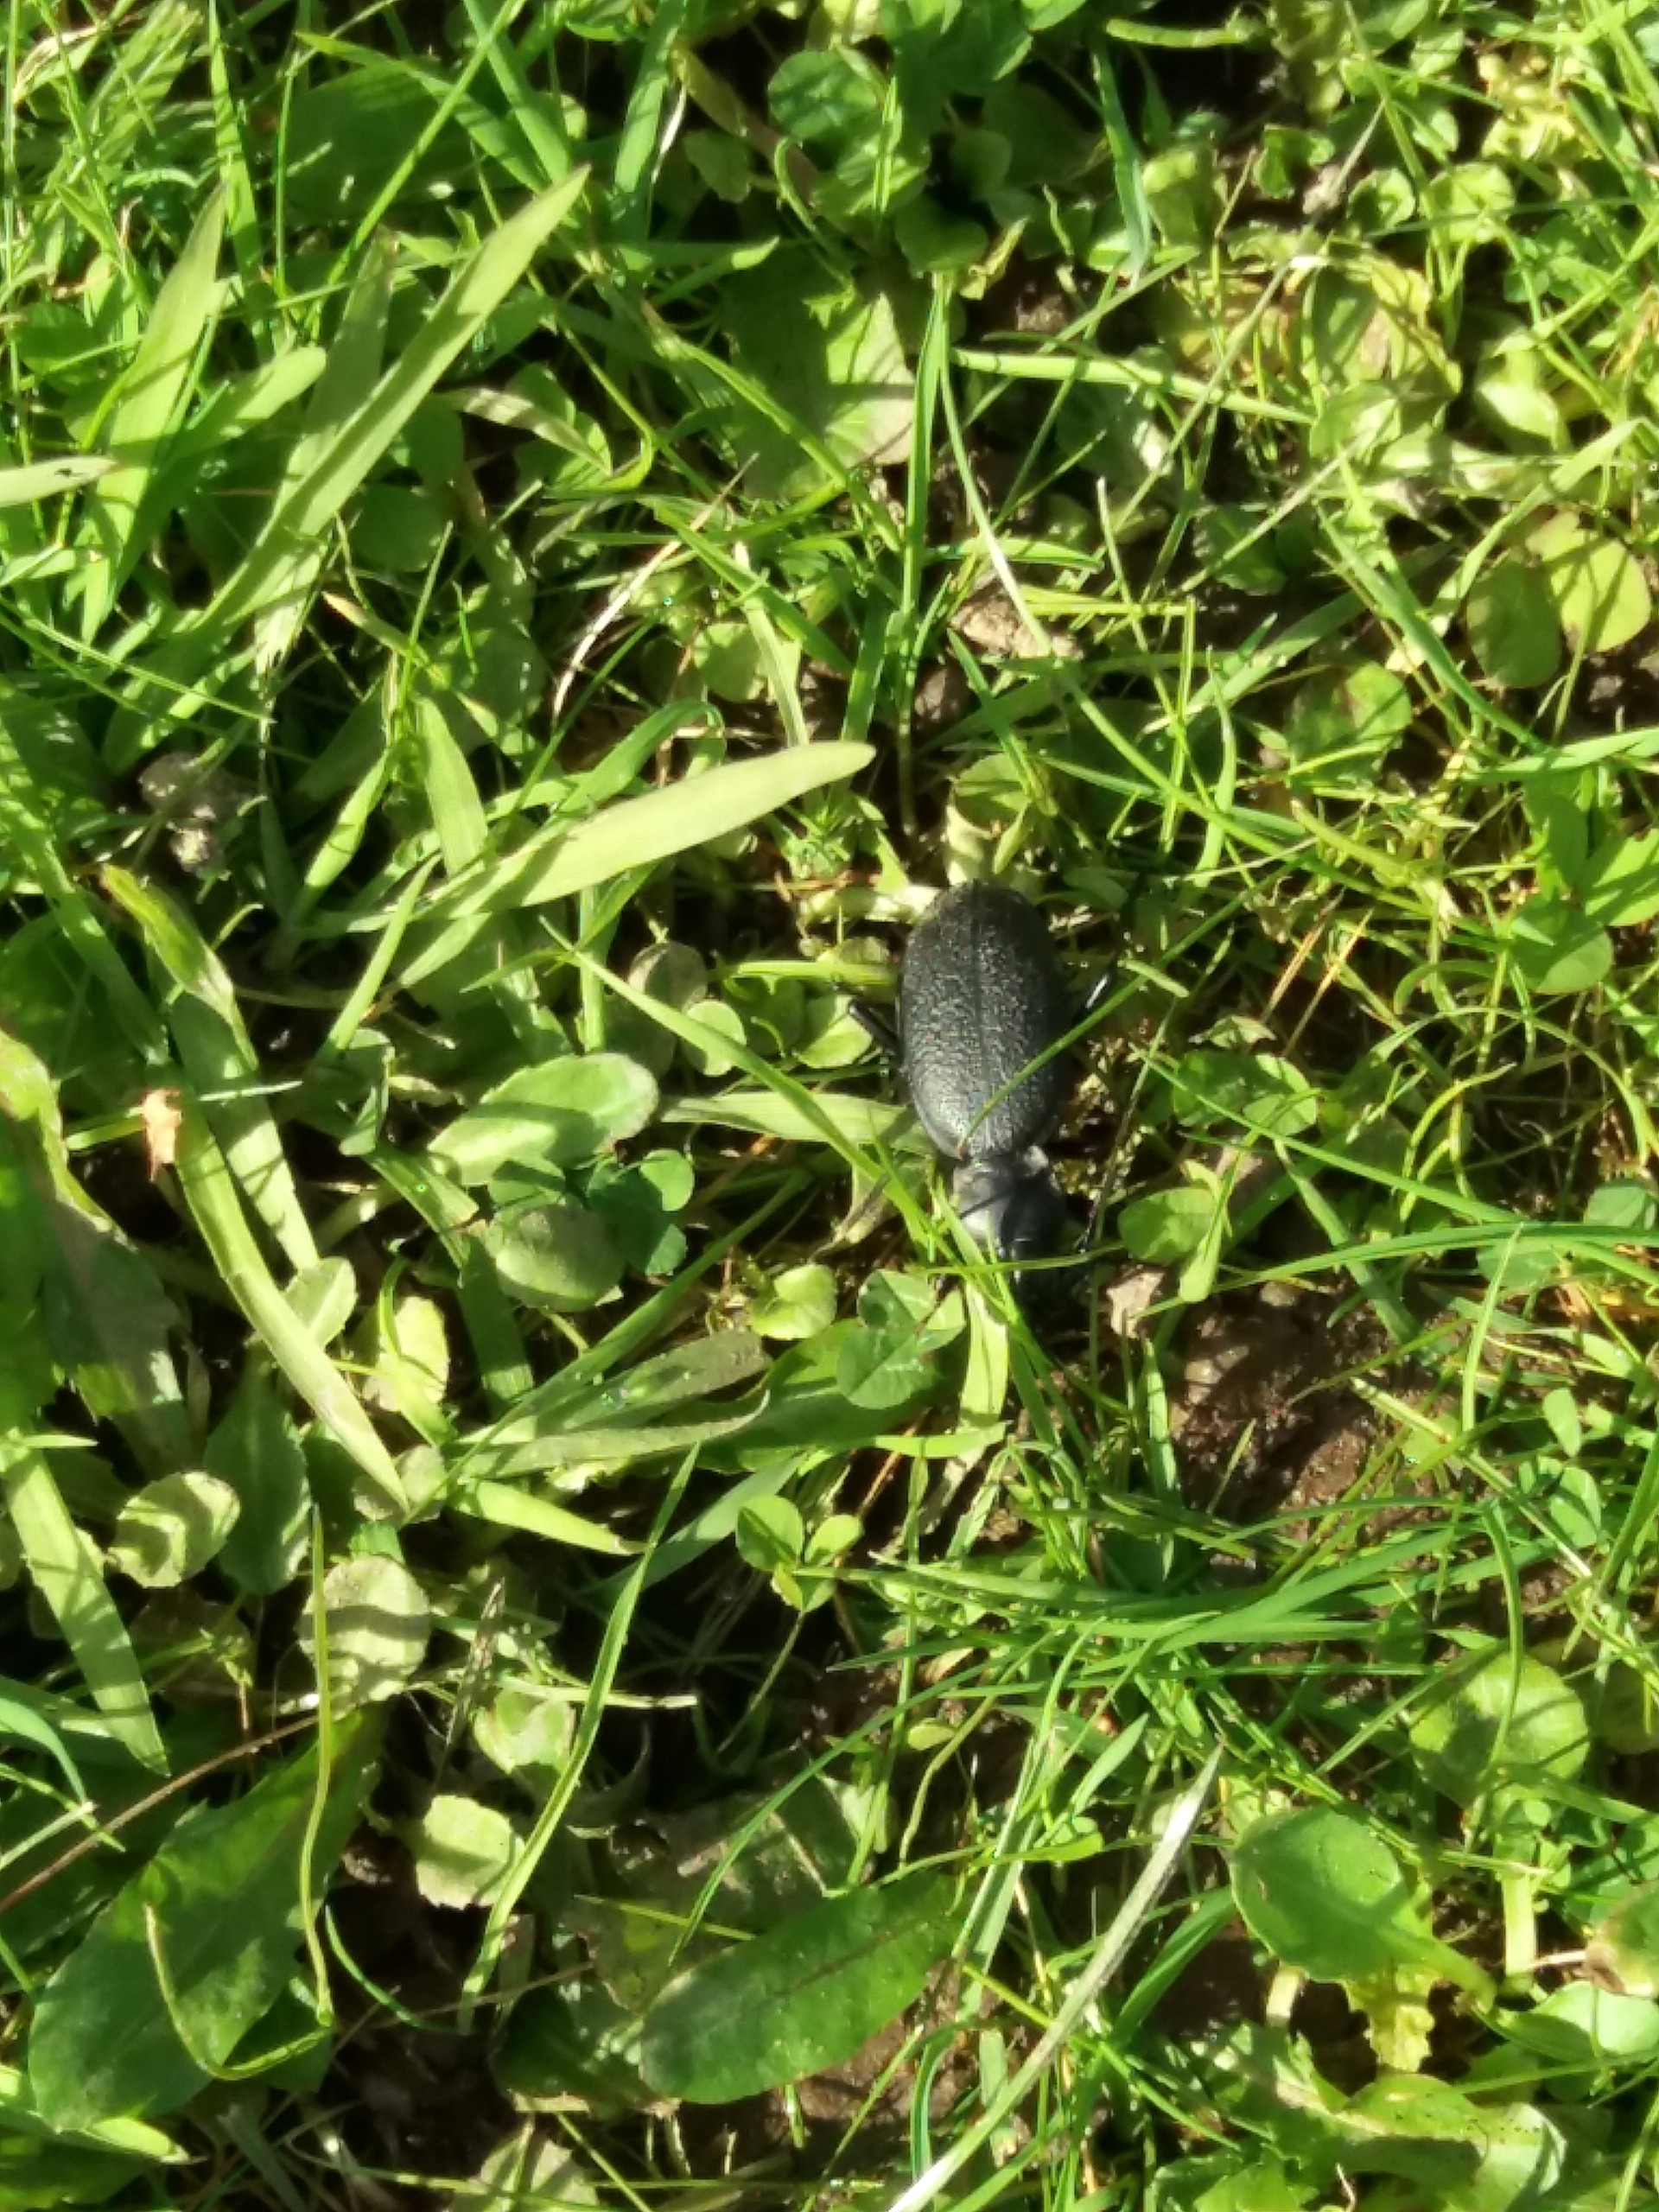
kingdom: Animalia
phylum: Arthropoda
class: Insecta
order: Coleoptera
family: Carabidae
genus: Carabus
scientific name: Carabus coriaceus
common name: Læderløber
